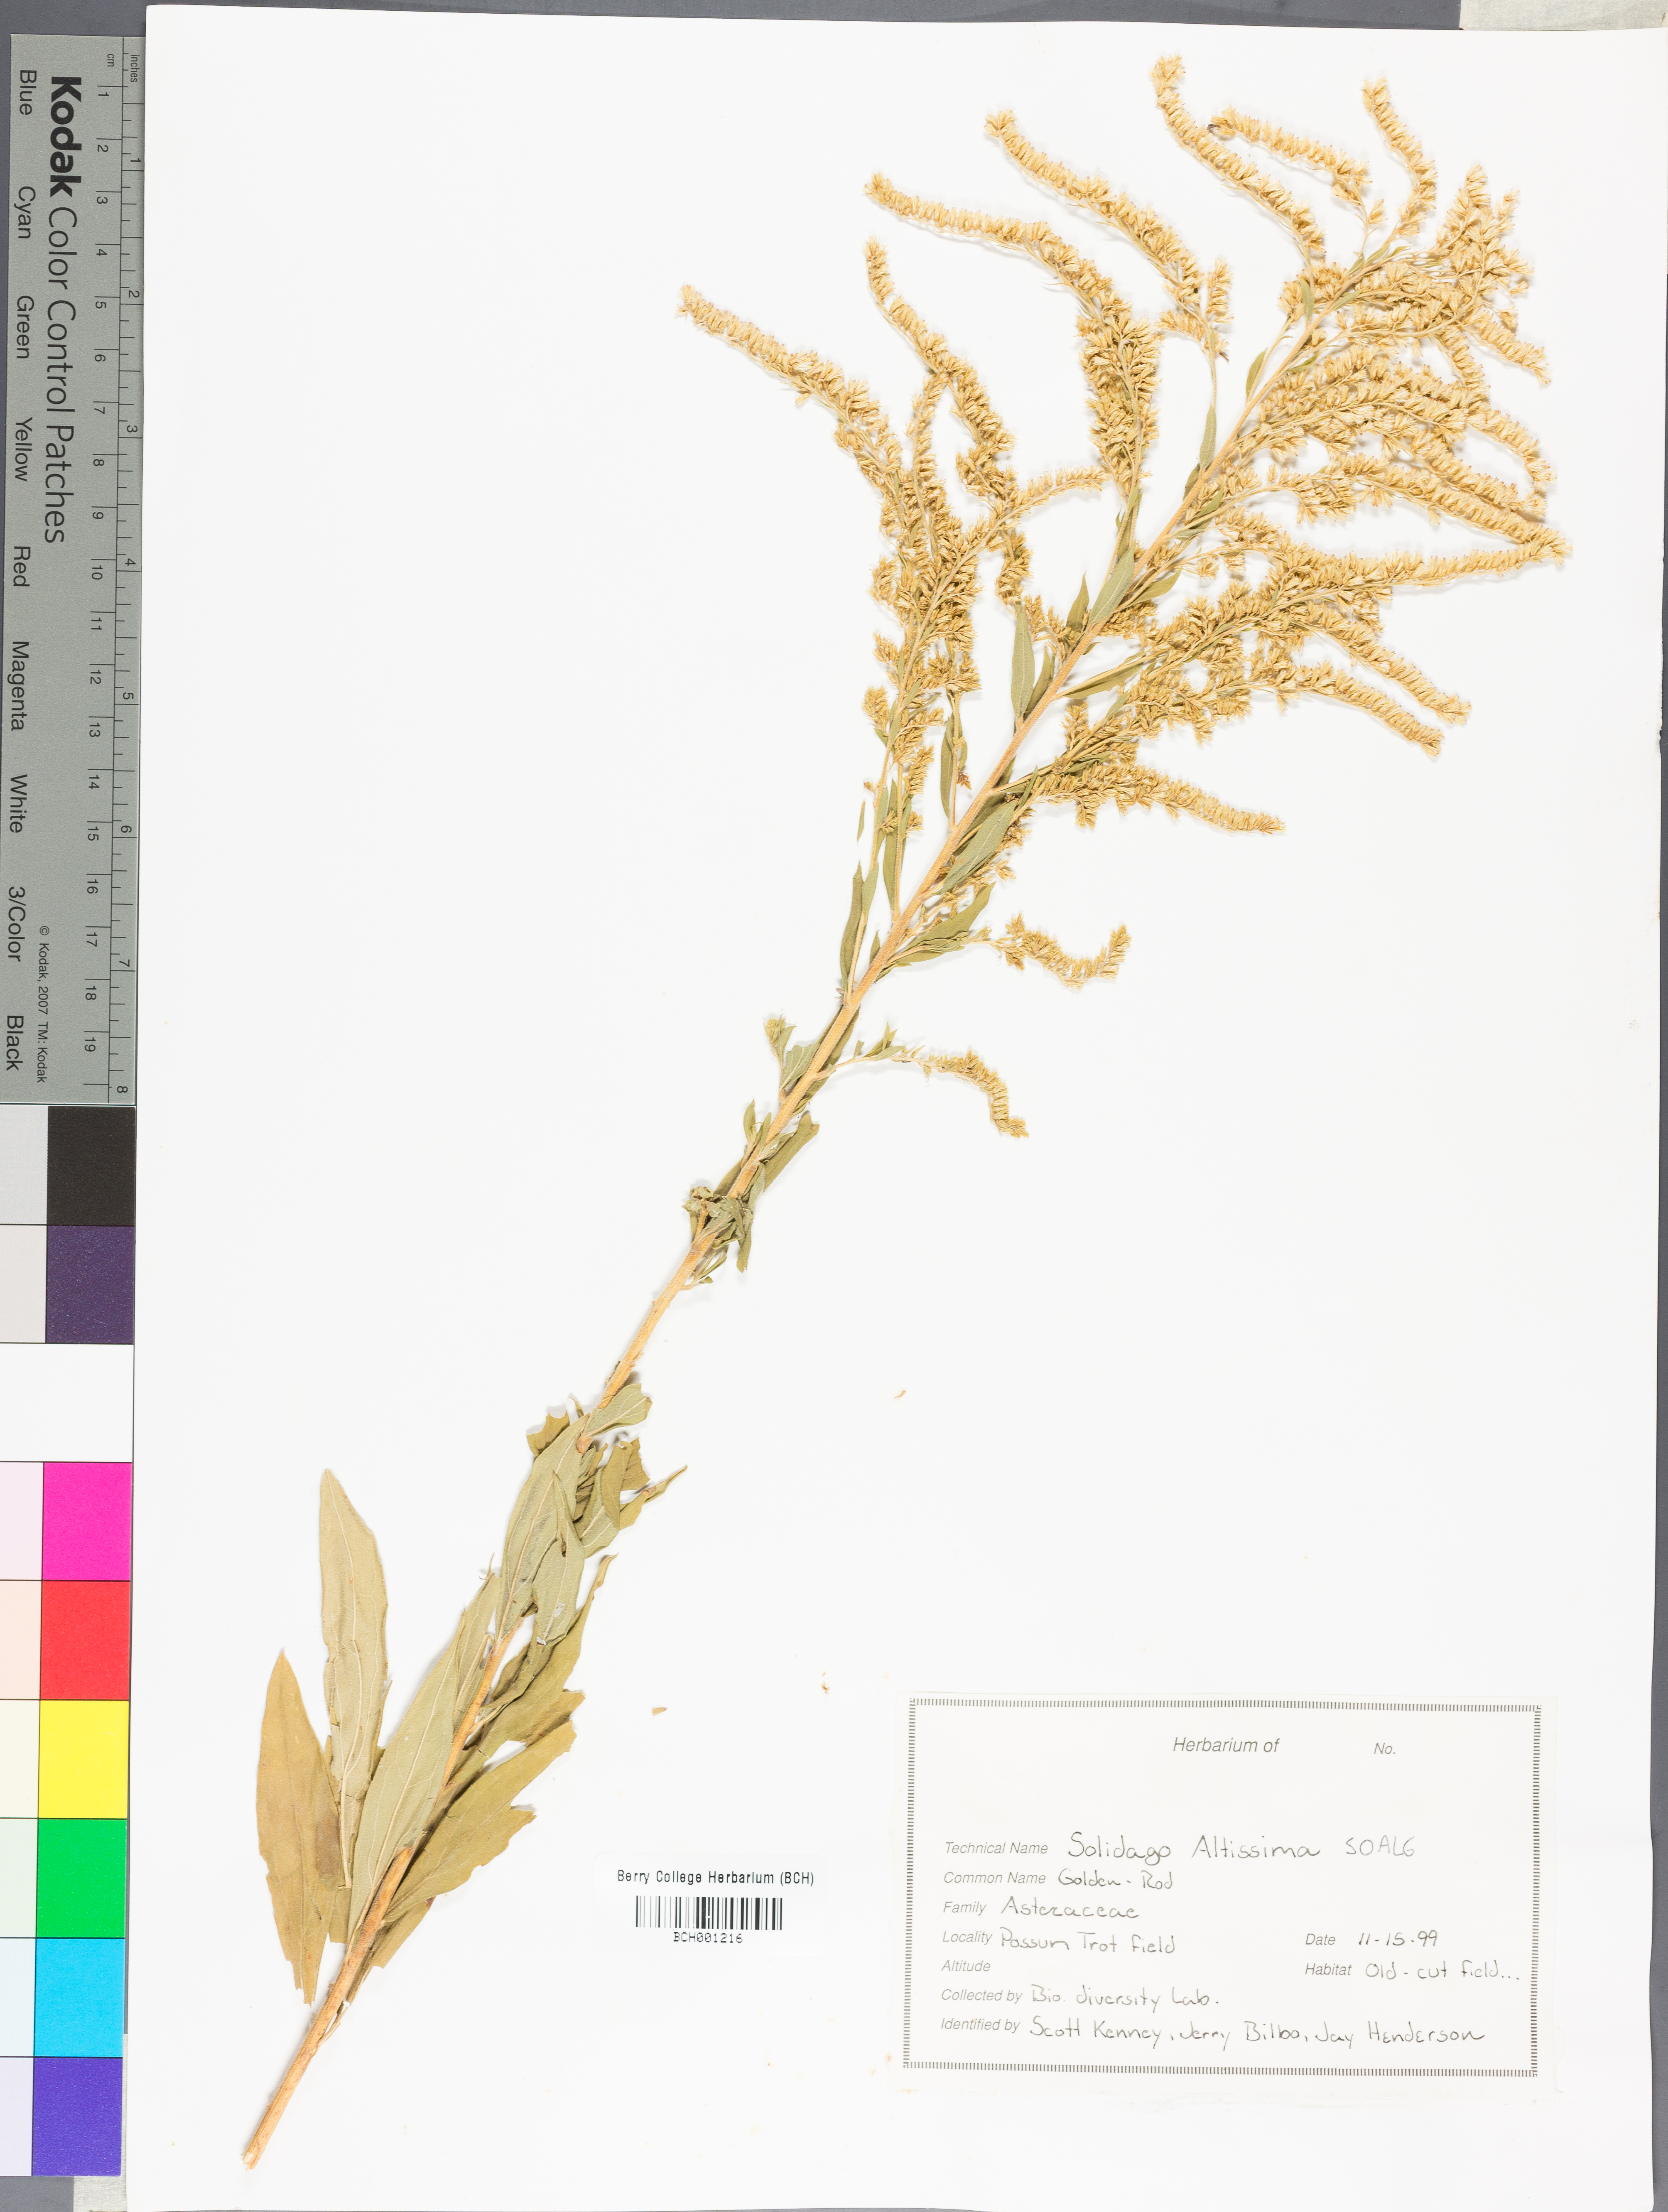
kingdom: Plantae
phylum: Tracheophyta
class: Magnoliopsida
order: Asterales
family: Asteraceae
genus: Solidago
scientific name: Solidago altissima
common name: Late goldenrod
